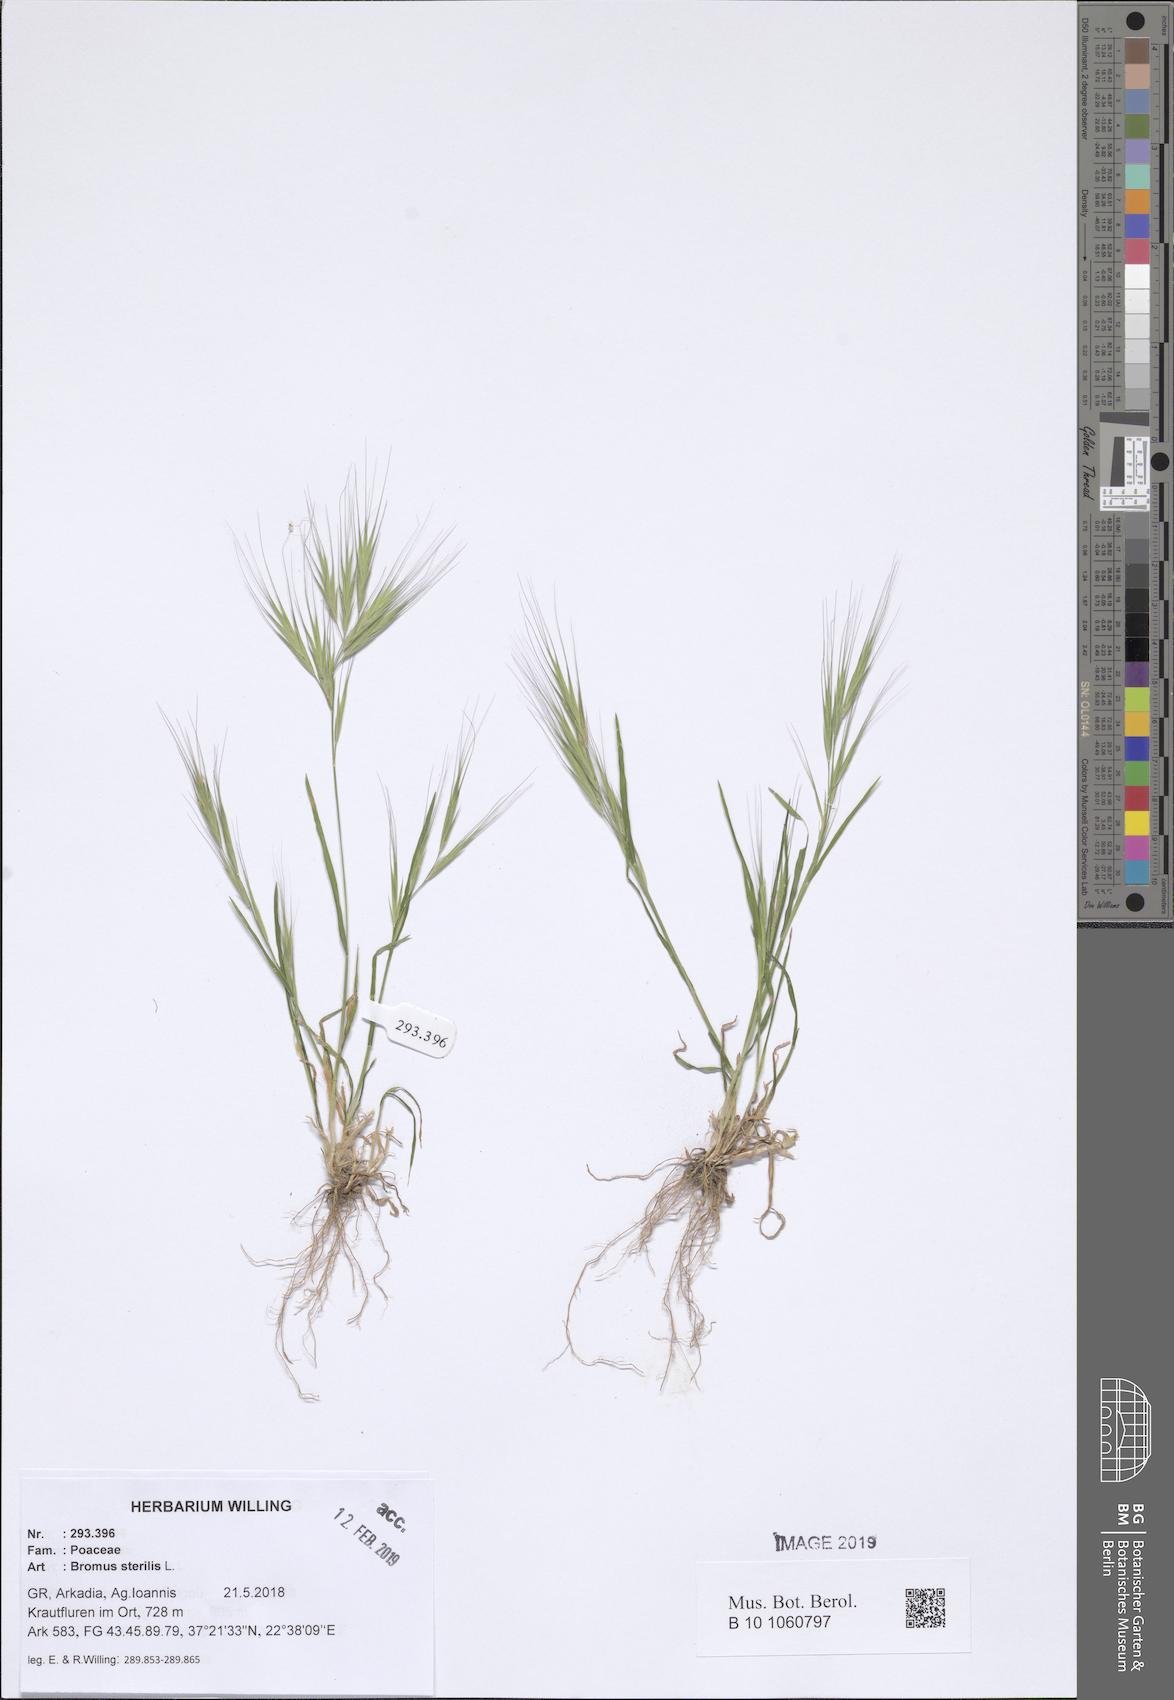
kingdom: Plantae
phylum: Tracheophyta
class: Liliopsida
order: Poales
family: Poaceae
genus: Bromus
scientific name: Bromus sterilis
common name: Poverty brome
